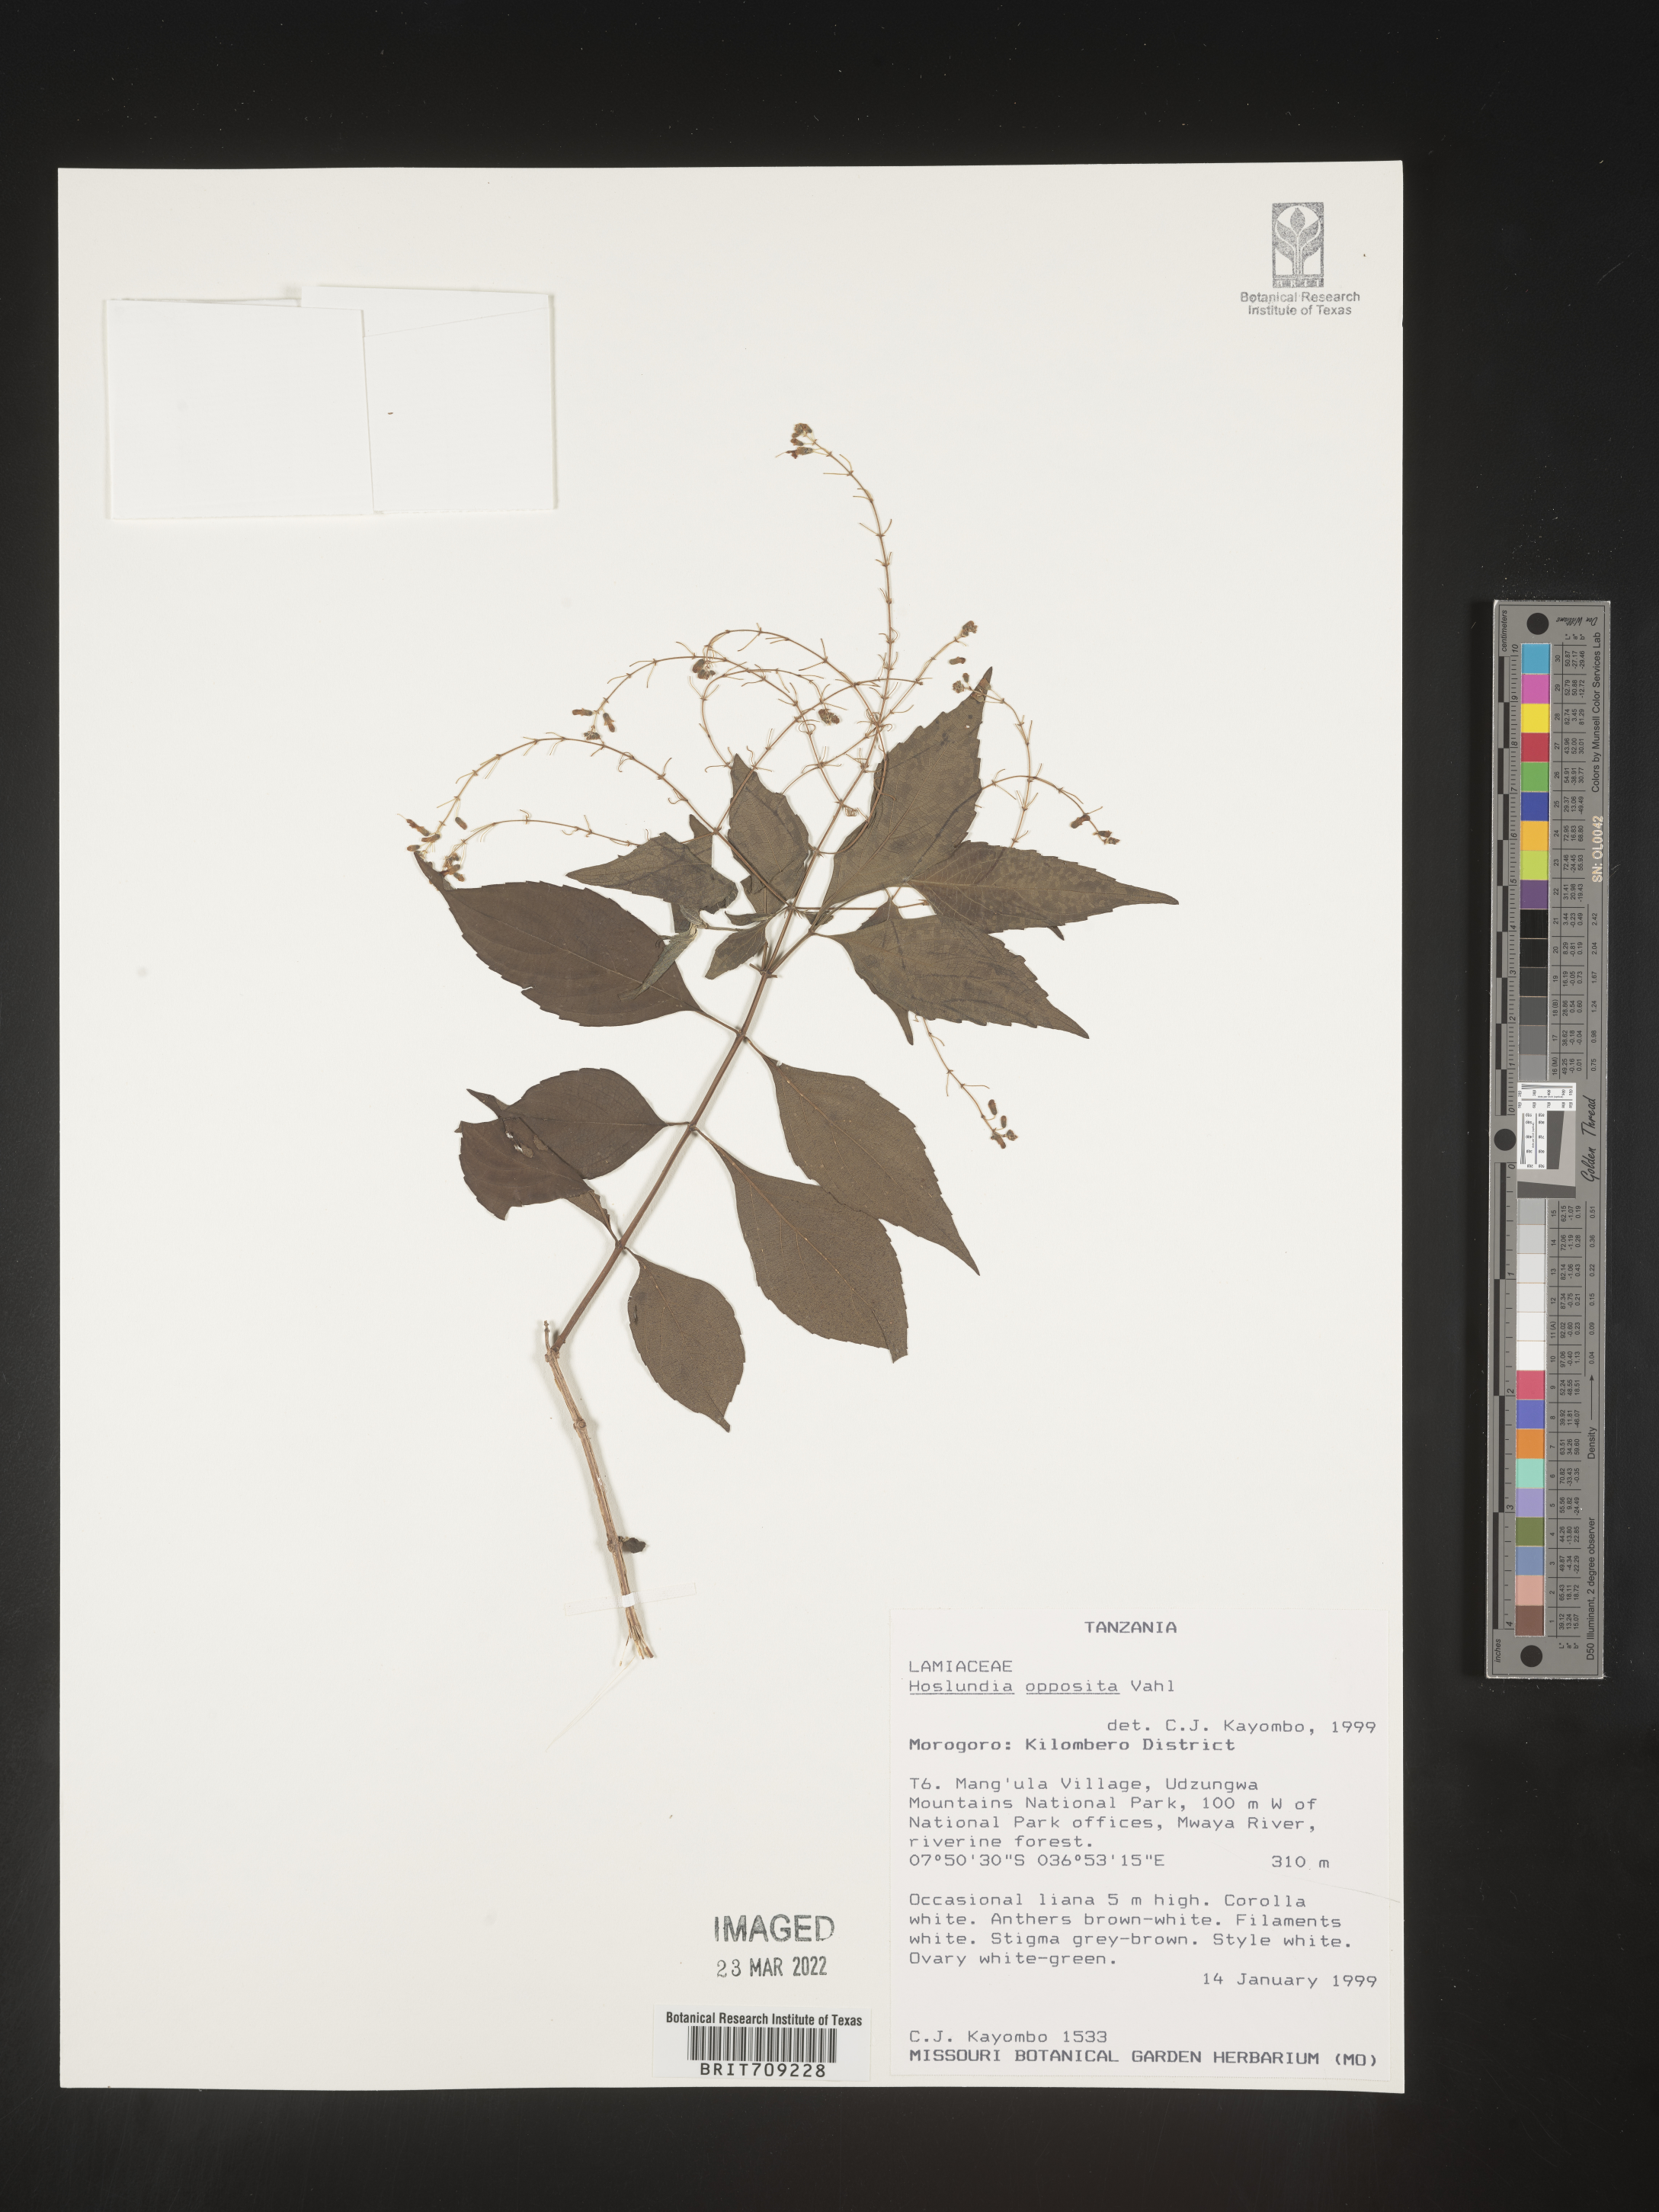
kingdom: Plantae
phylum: Tracheophyta
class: Magnoliopsida
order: Lamiales
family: Lamiaceae
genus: Hoslundia
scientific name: Hoslundia opposita
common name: Kamyuye
